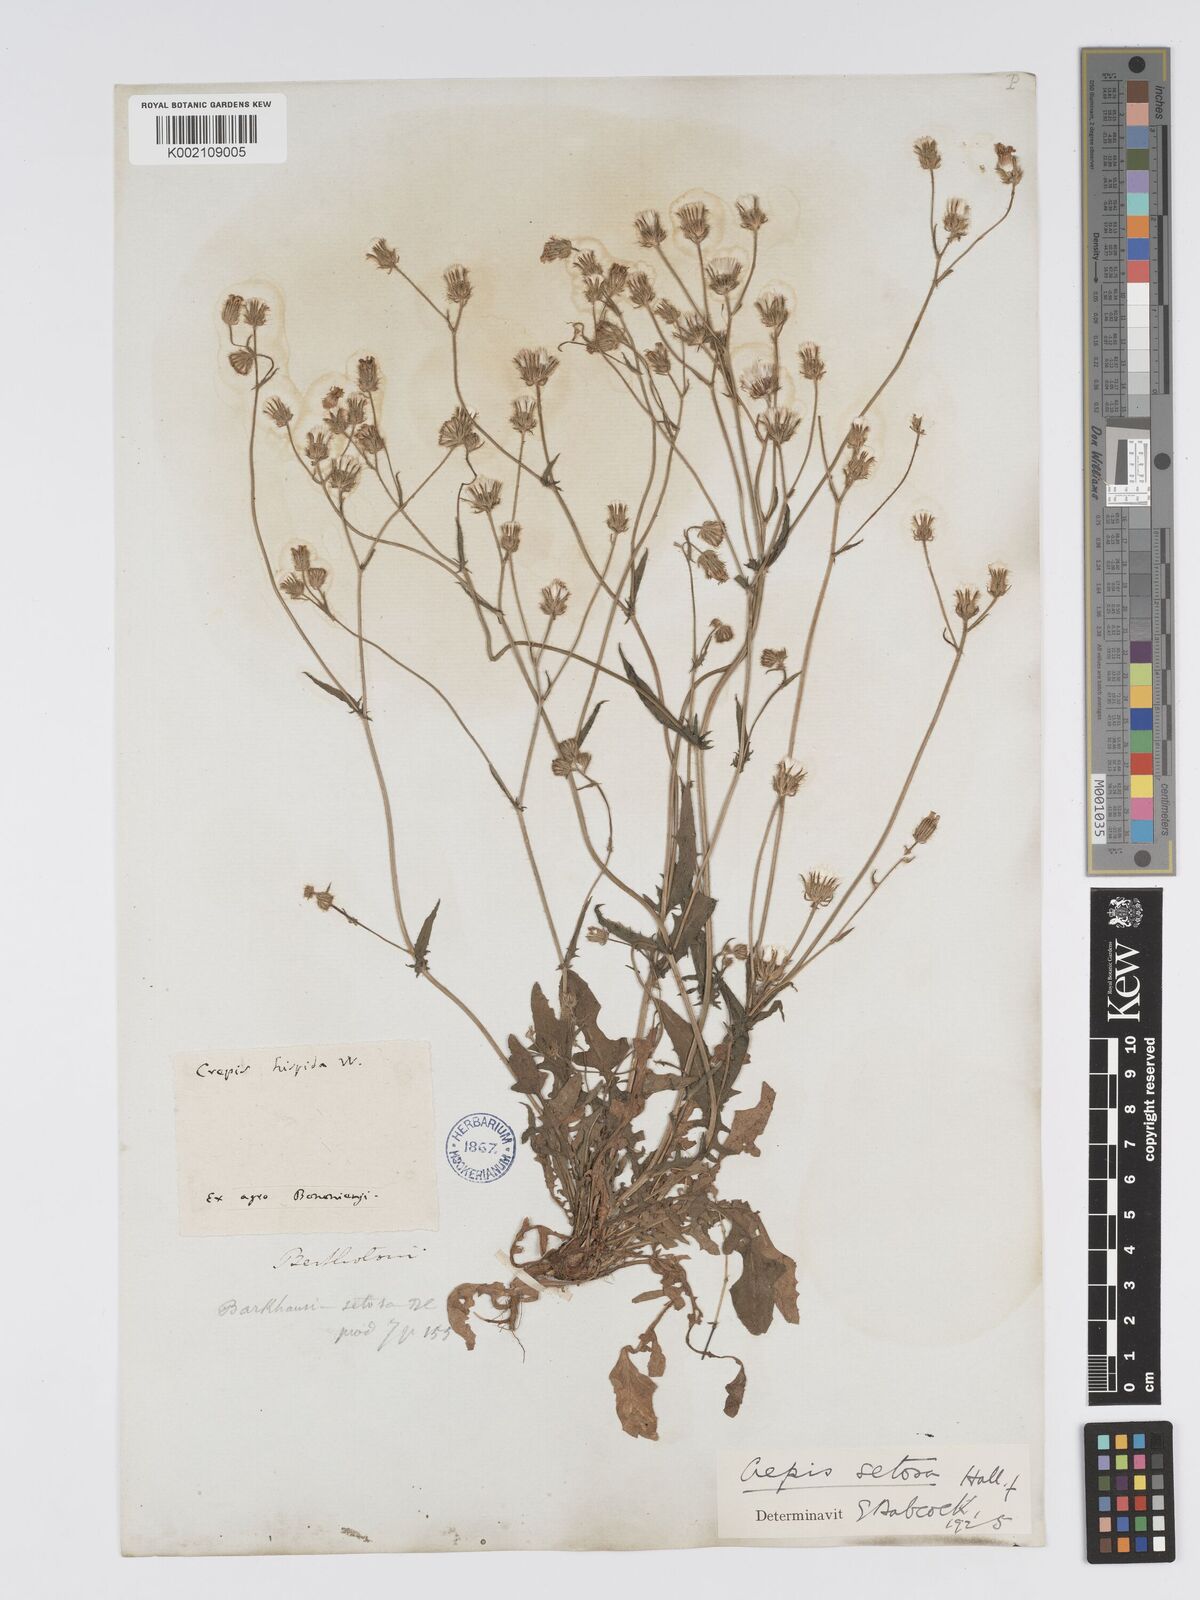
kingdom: Plantae
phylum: Tracheophyta
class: Magnoliopsida
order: Asterales
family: Asteraceae
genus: Crepis
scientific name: Crepis setosa
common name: Bristly hawk's-beard
